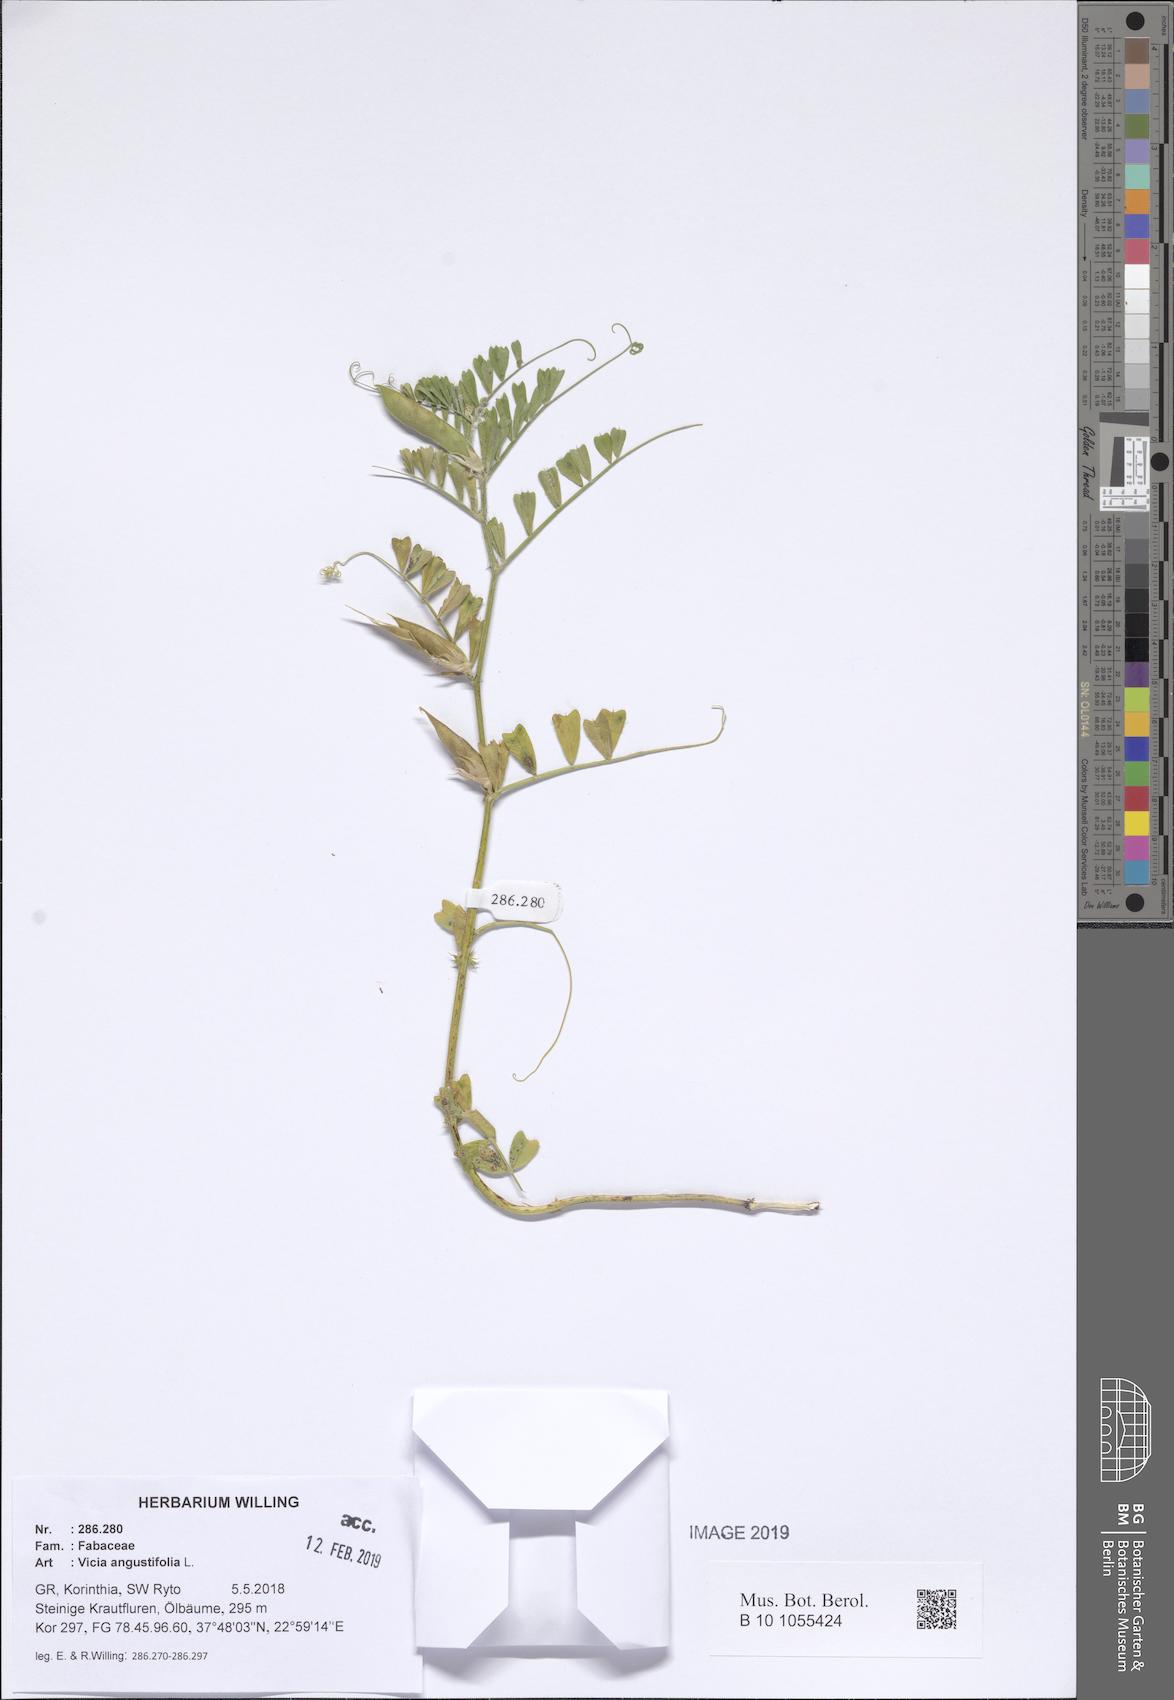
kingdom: Plantae
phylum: Tracheophyta
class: Magnoliopsida
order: Fabales
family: Fabaceae
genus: Vicia
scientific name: Vicia sativa
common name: Garden vetch
